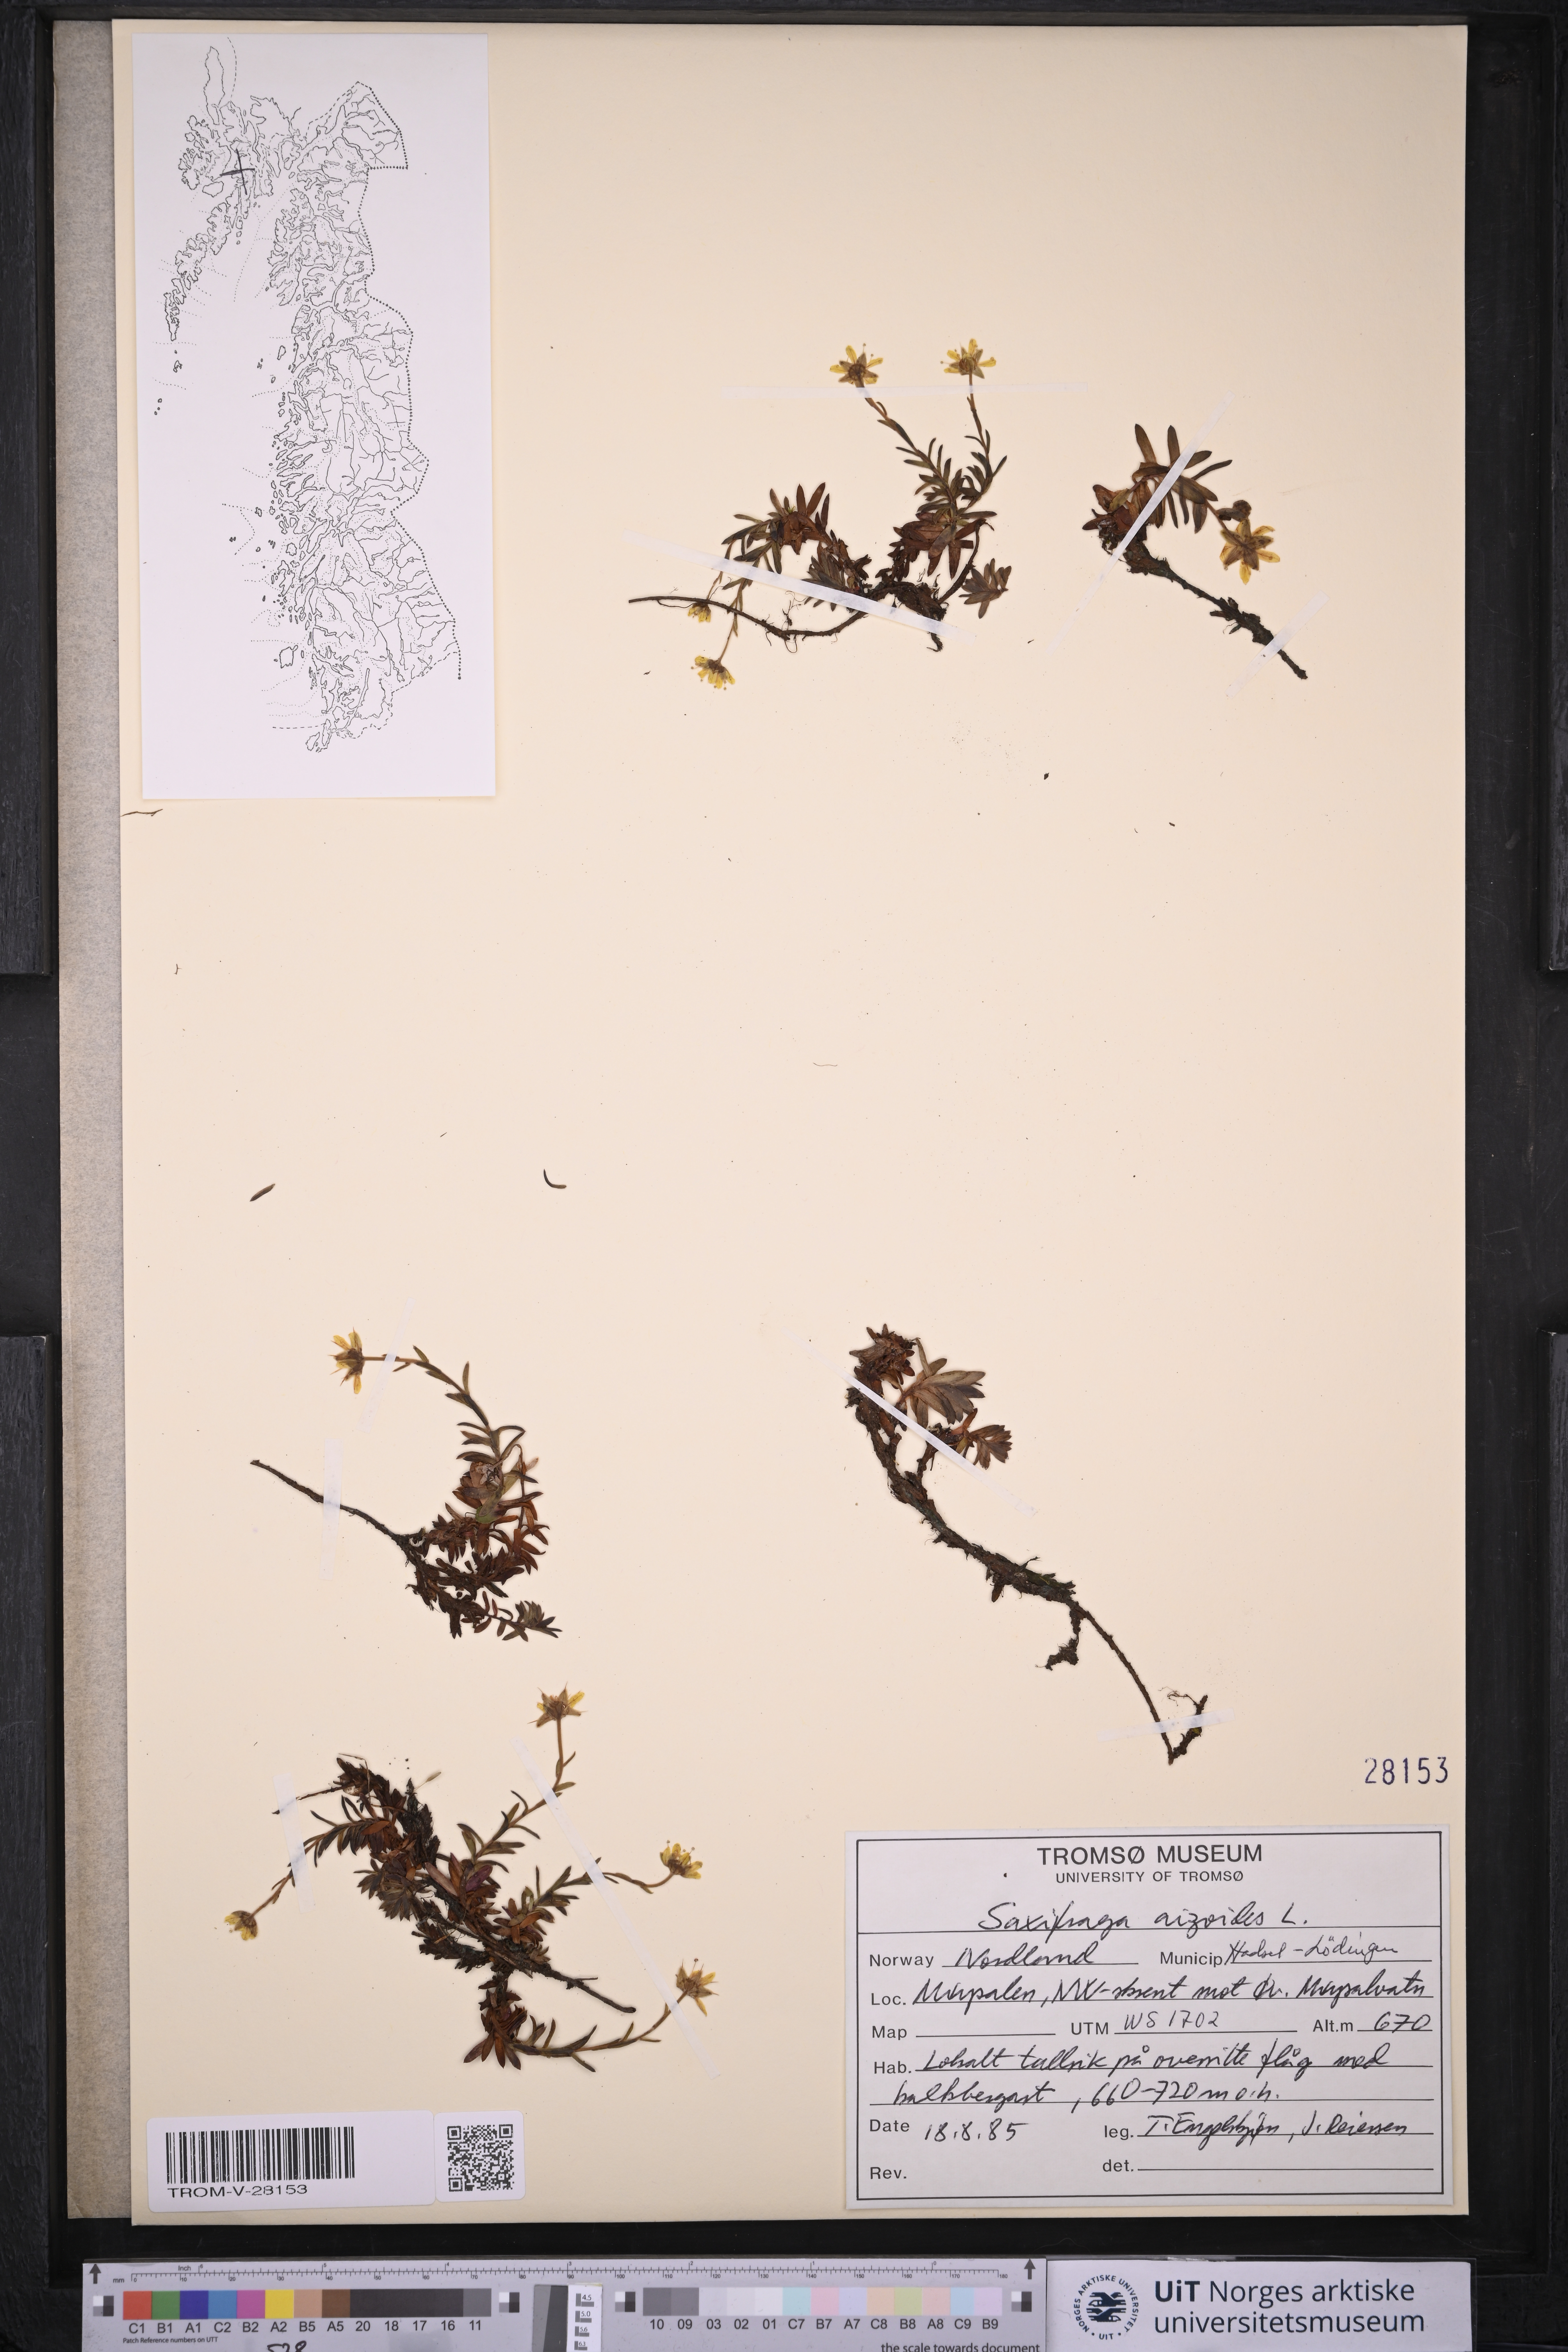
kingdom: Plantae
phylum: Tracheophyta
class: Magnoliopsida
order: Saxifragales
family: Saxifragaceae
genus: Saxifraga
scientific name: Saxifraga aizoides
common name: Yellow mountain saxifrage
